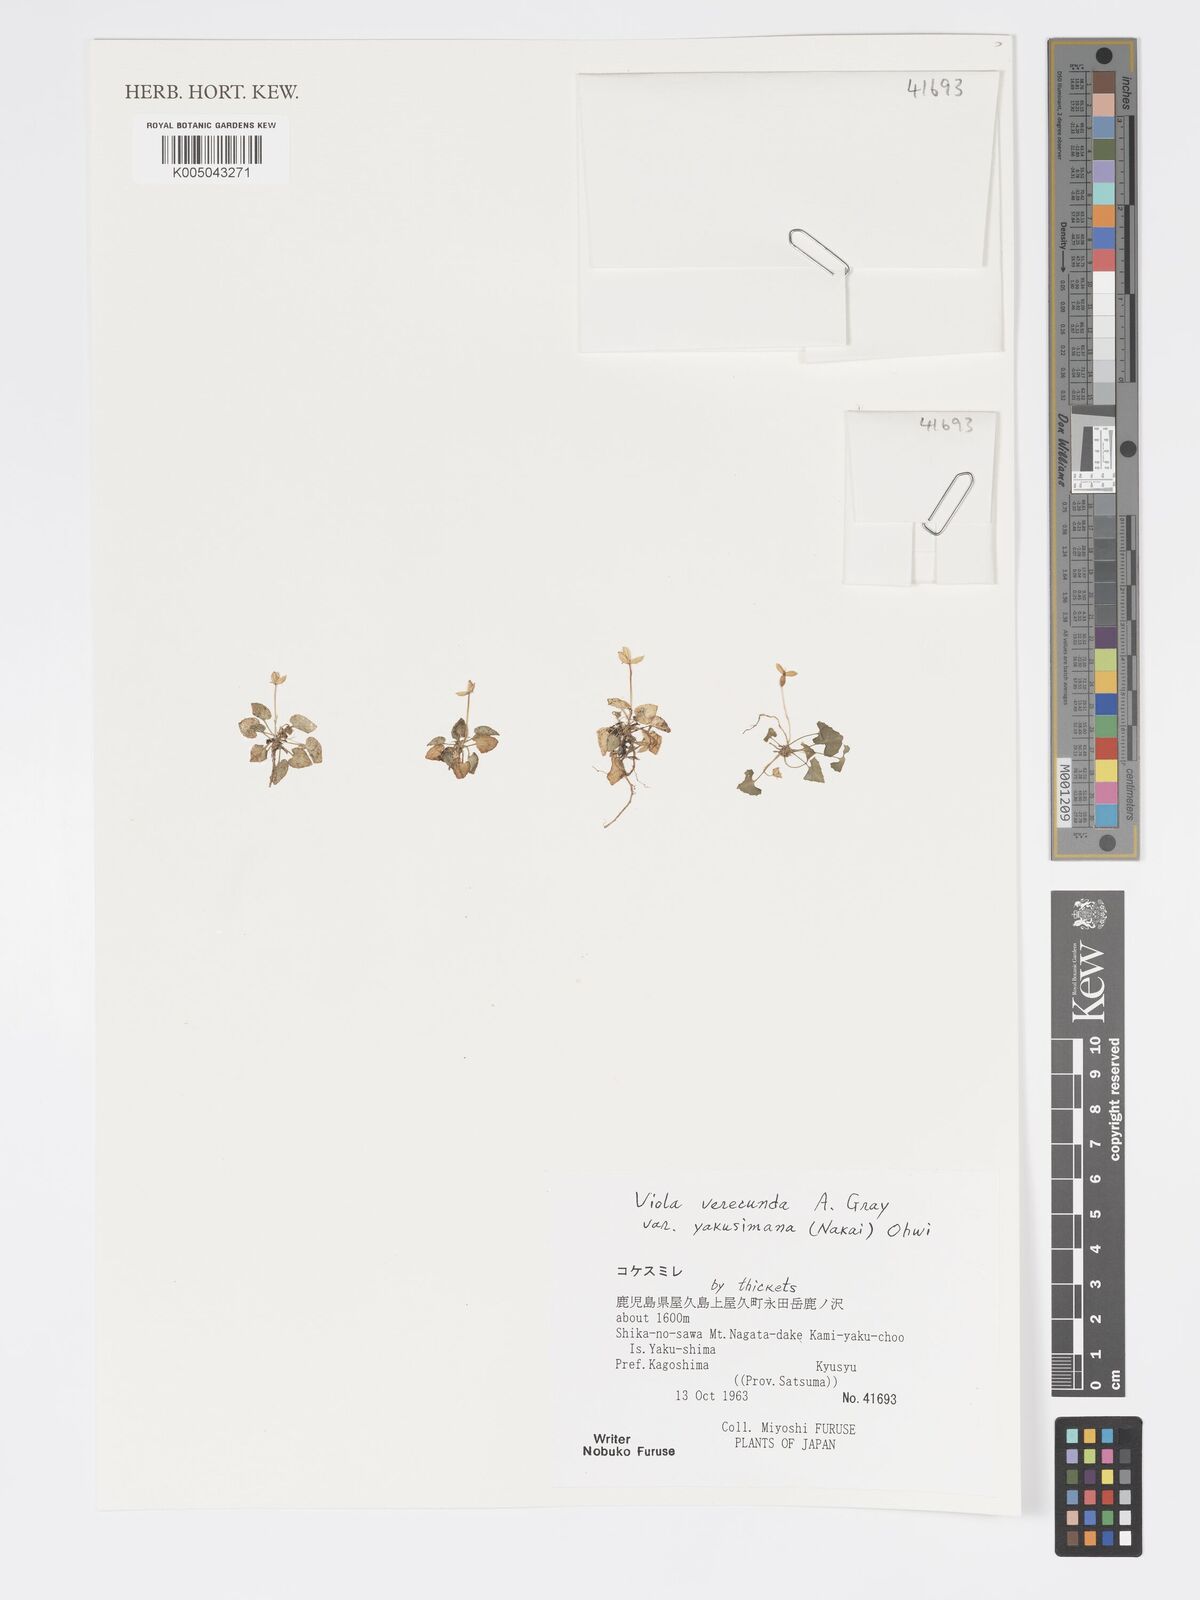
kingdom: Plantae
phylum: Tracheophyta
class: Magnoliopsida
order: Malpighiales
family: Violaceae
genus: Viola
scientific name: Viola hamiltoniana
